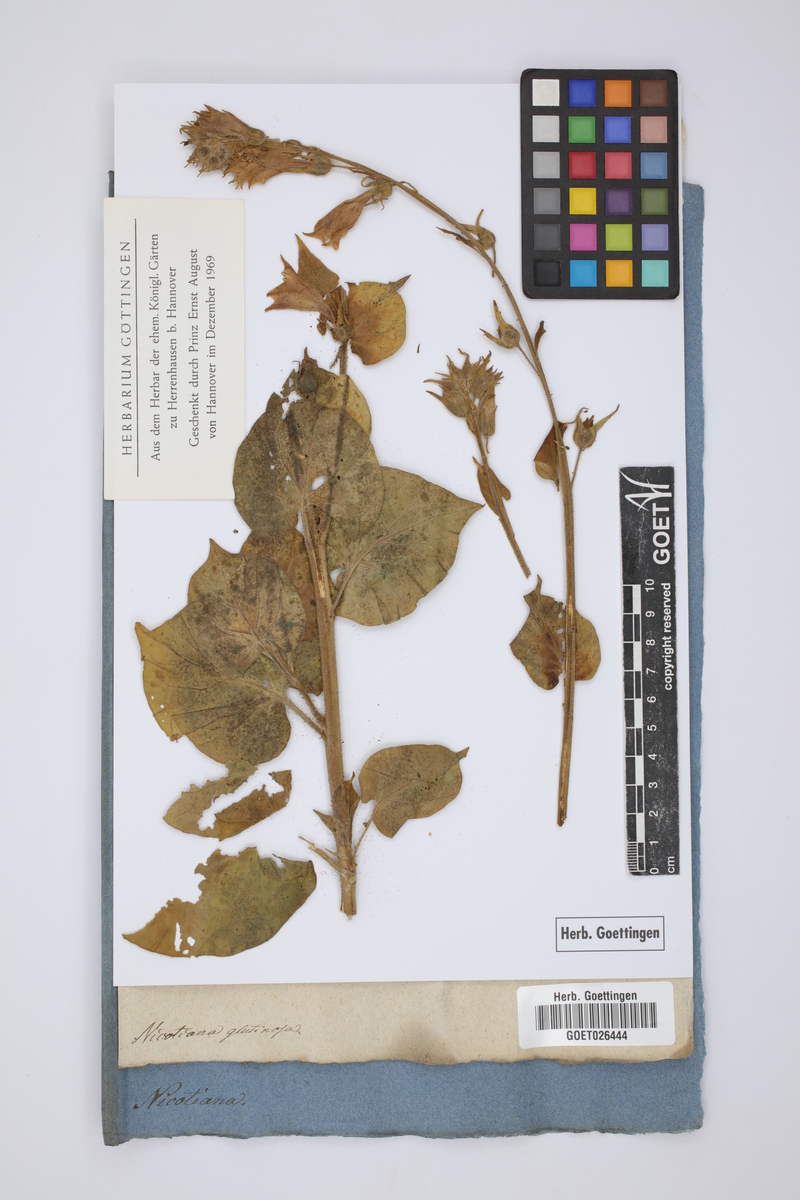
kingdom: Plantae
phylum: Tracheophyta
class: Magnoliopsida
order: Solanales
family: Solanaceae
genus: Nicotiana
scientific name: Nicotiana glutinosa
